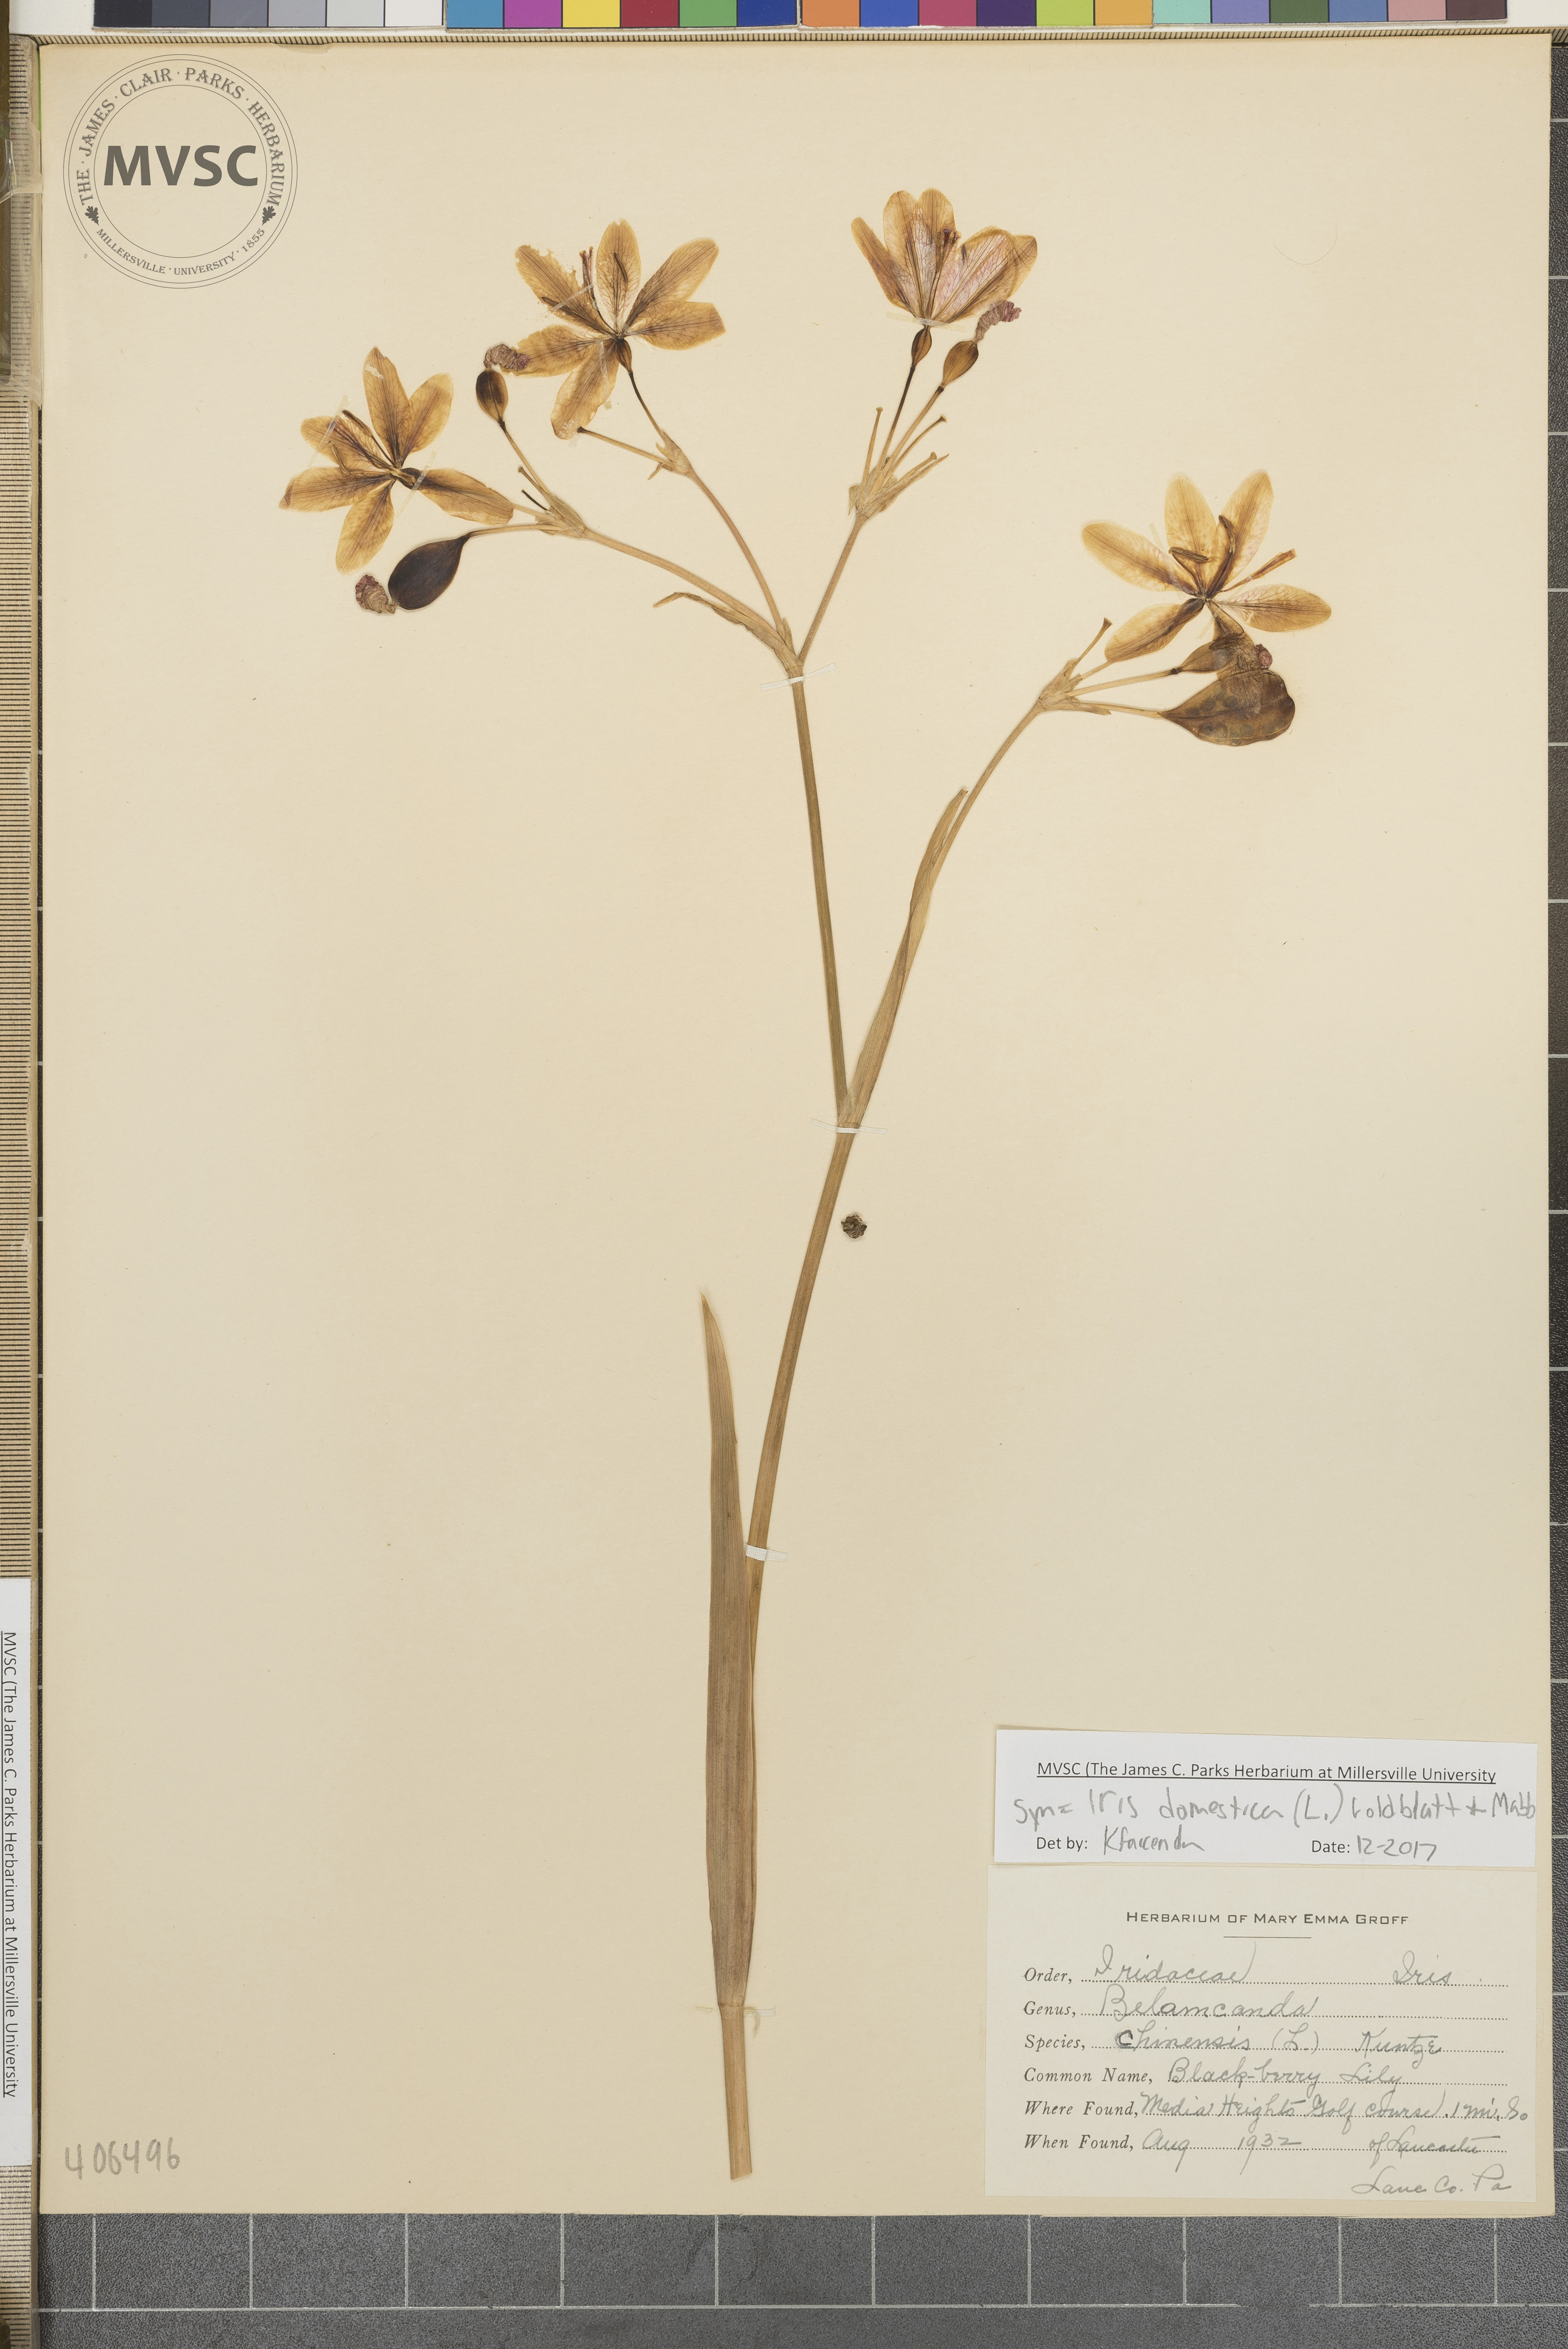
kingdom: Plantae
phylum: Tracheophyta
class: Liliopsida
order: Asparagales
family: Iridaceae
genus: Iris
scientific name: Iris domestica
